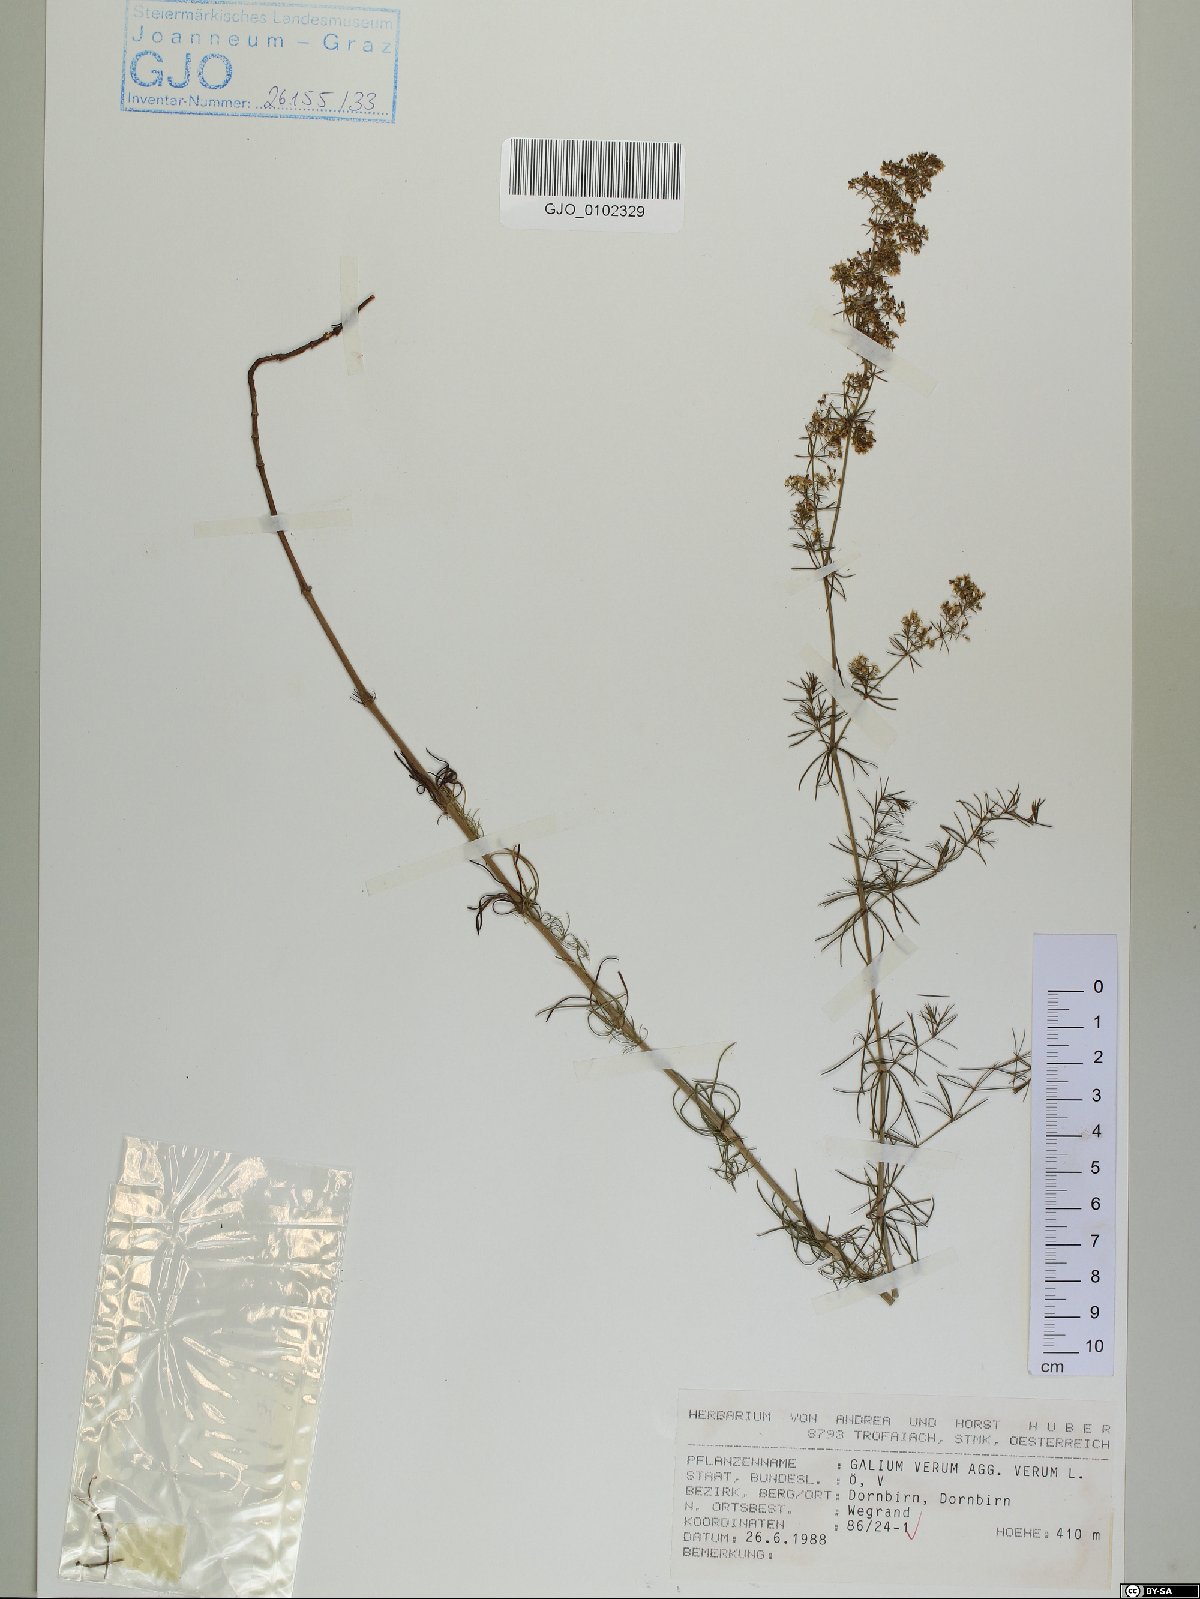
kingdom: Plantae
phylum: Tracheophyta
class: Magnoliopsida
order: Gentianales
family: Rubiaceae
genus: Galium
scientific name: Galium verum
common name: Lady's bedstraw
